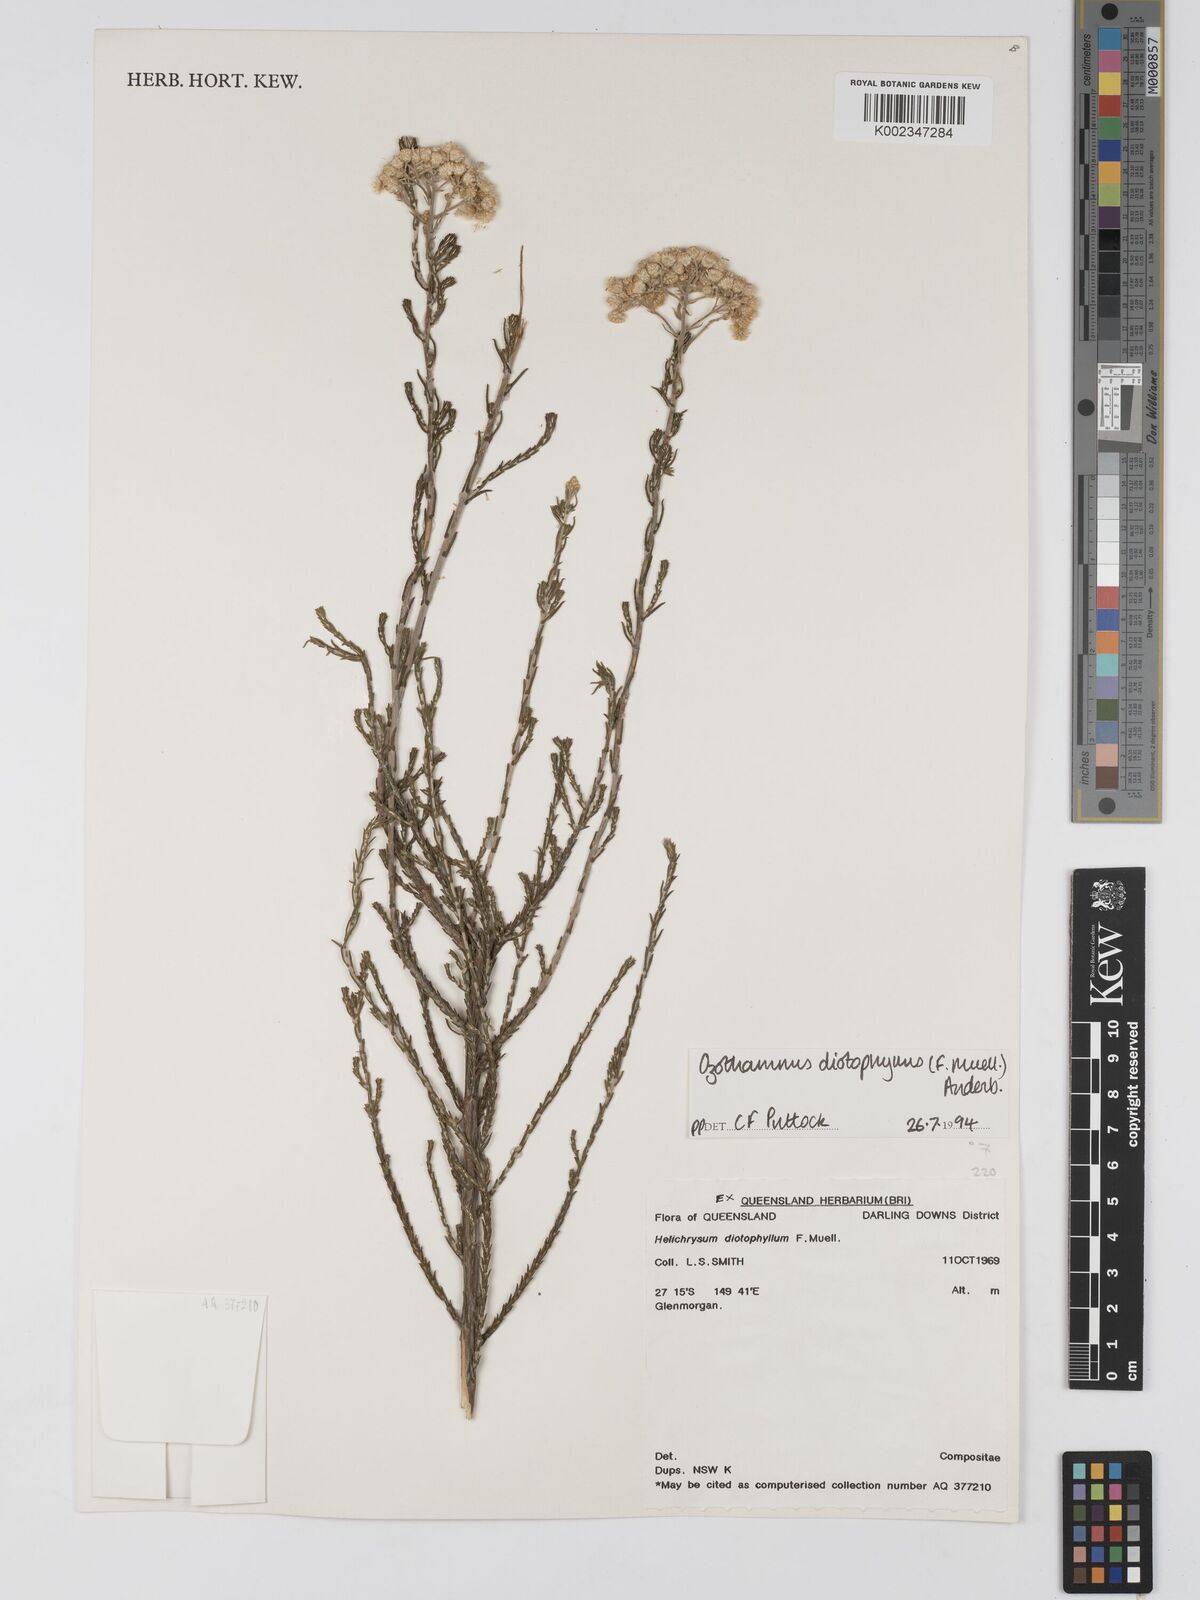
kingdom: Plantae
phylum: Tracheophyta
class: Magnoliopsida
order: Asterales
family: Asteraceae
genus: Ozothamnus
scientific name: Ozothamnus diotophyllus
